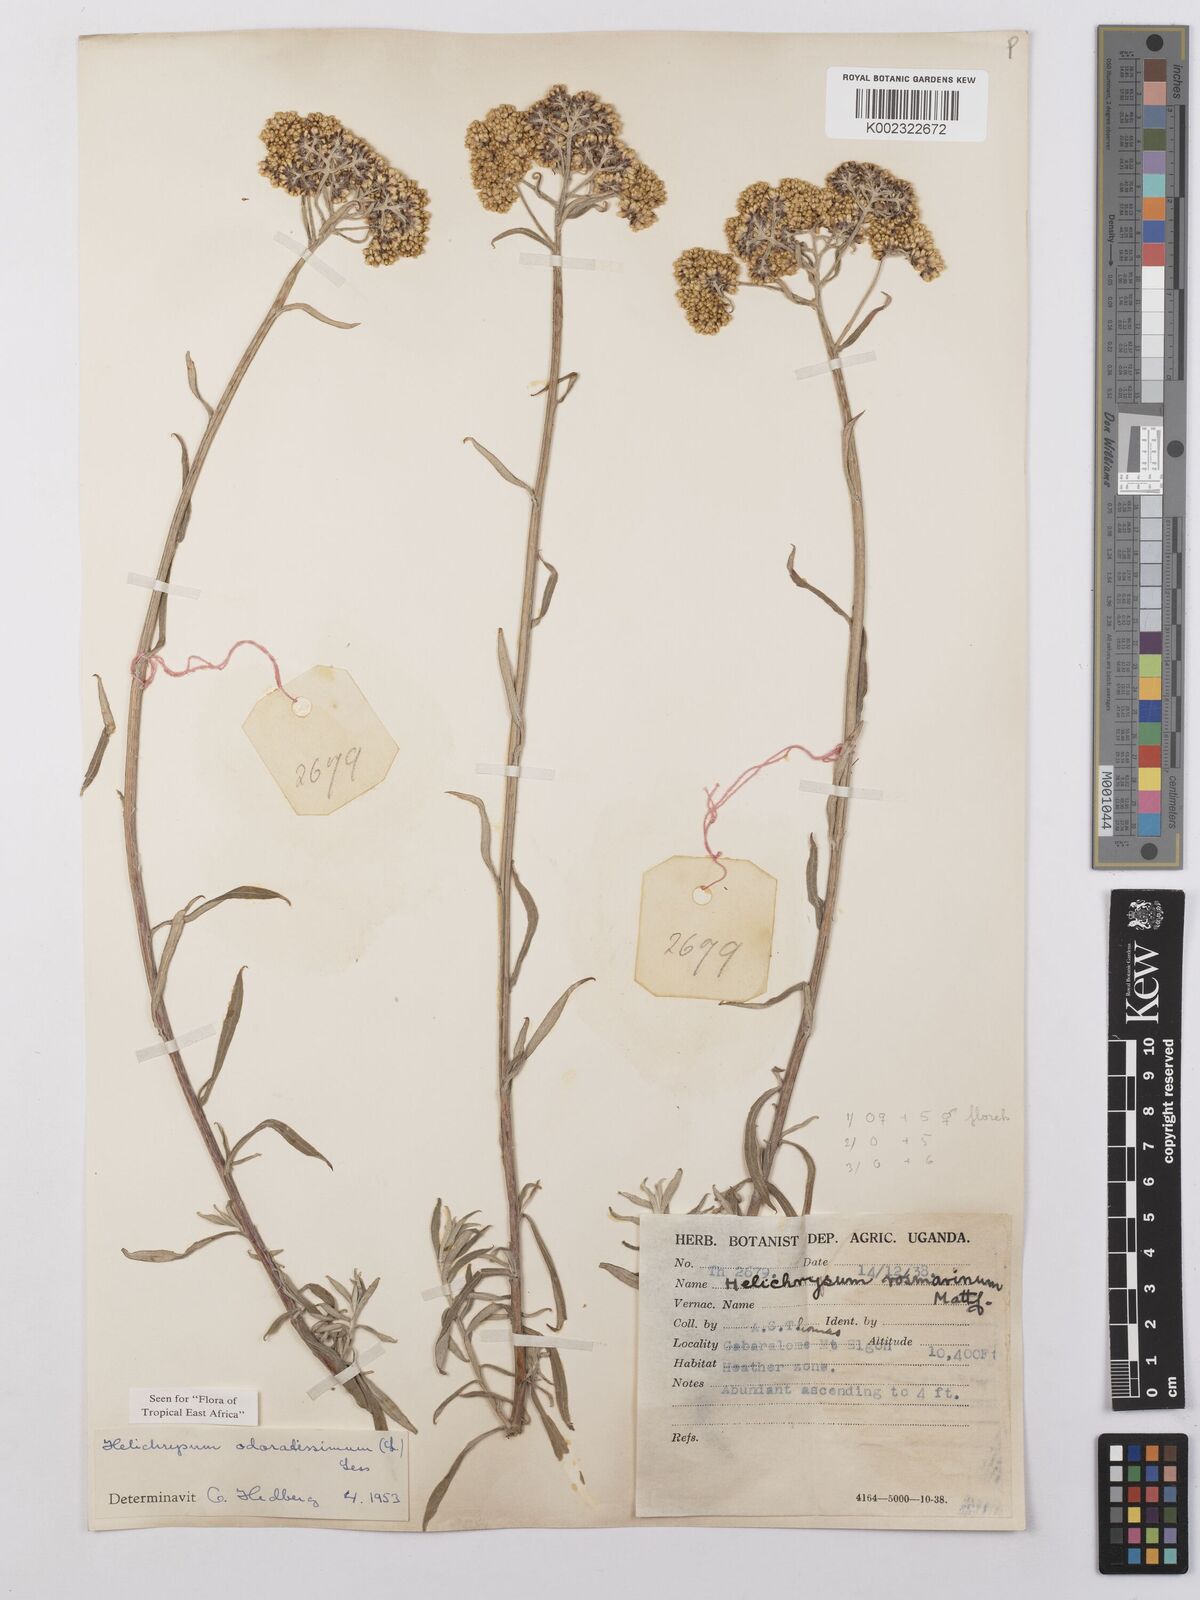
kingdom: Plantae
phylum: Tracheophyta
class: Magnoliopsida
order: Asterales
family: Asteraceae
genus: Helichrysum
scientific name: Helichrysum odoratissimum
